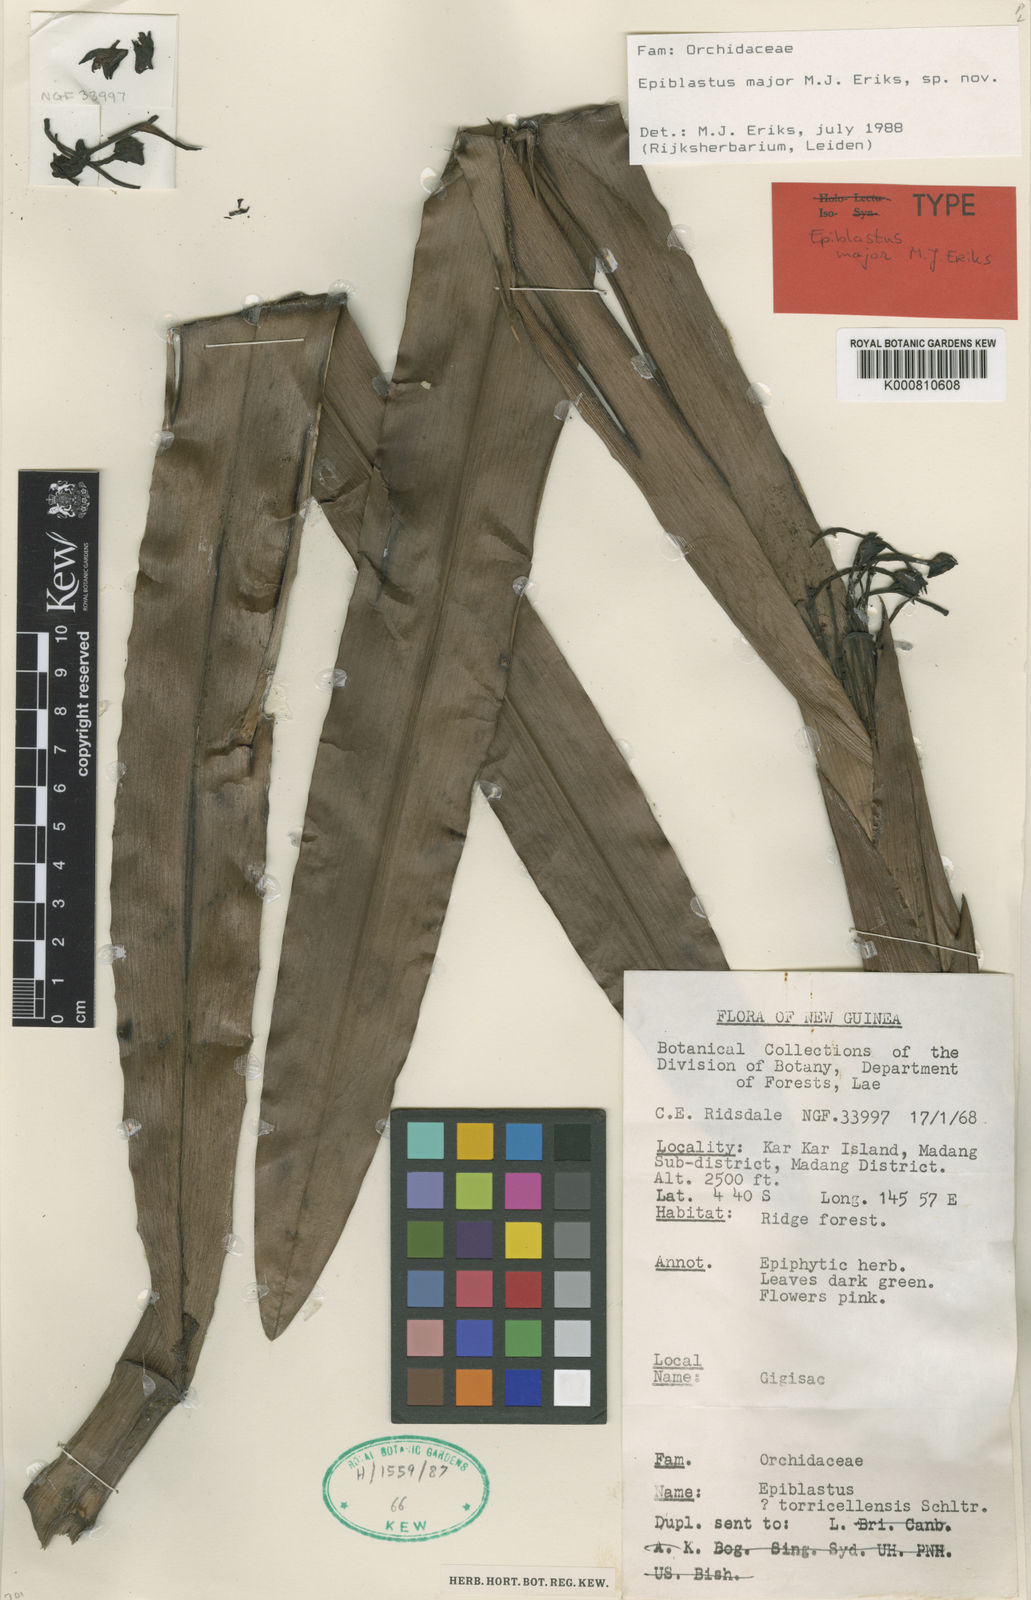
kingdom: Plantae
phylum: Tracheophyta
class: Liliopsida
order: Asparagales
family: Orchidaceae
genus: Epiblastus
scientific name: Epiblastus
